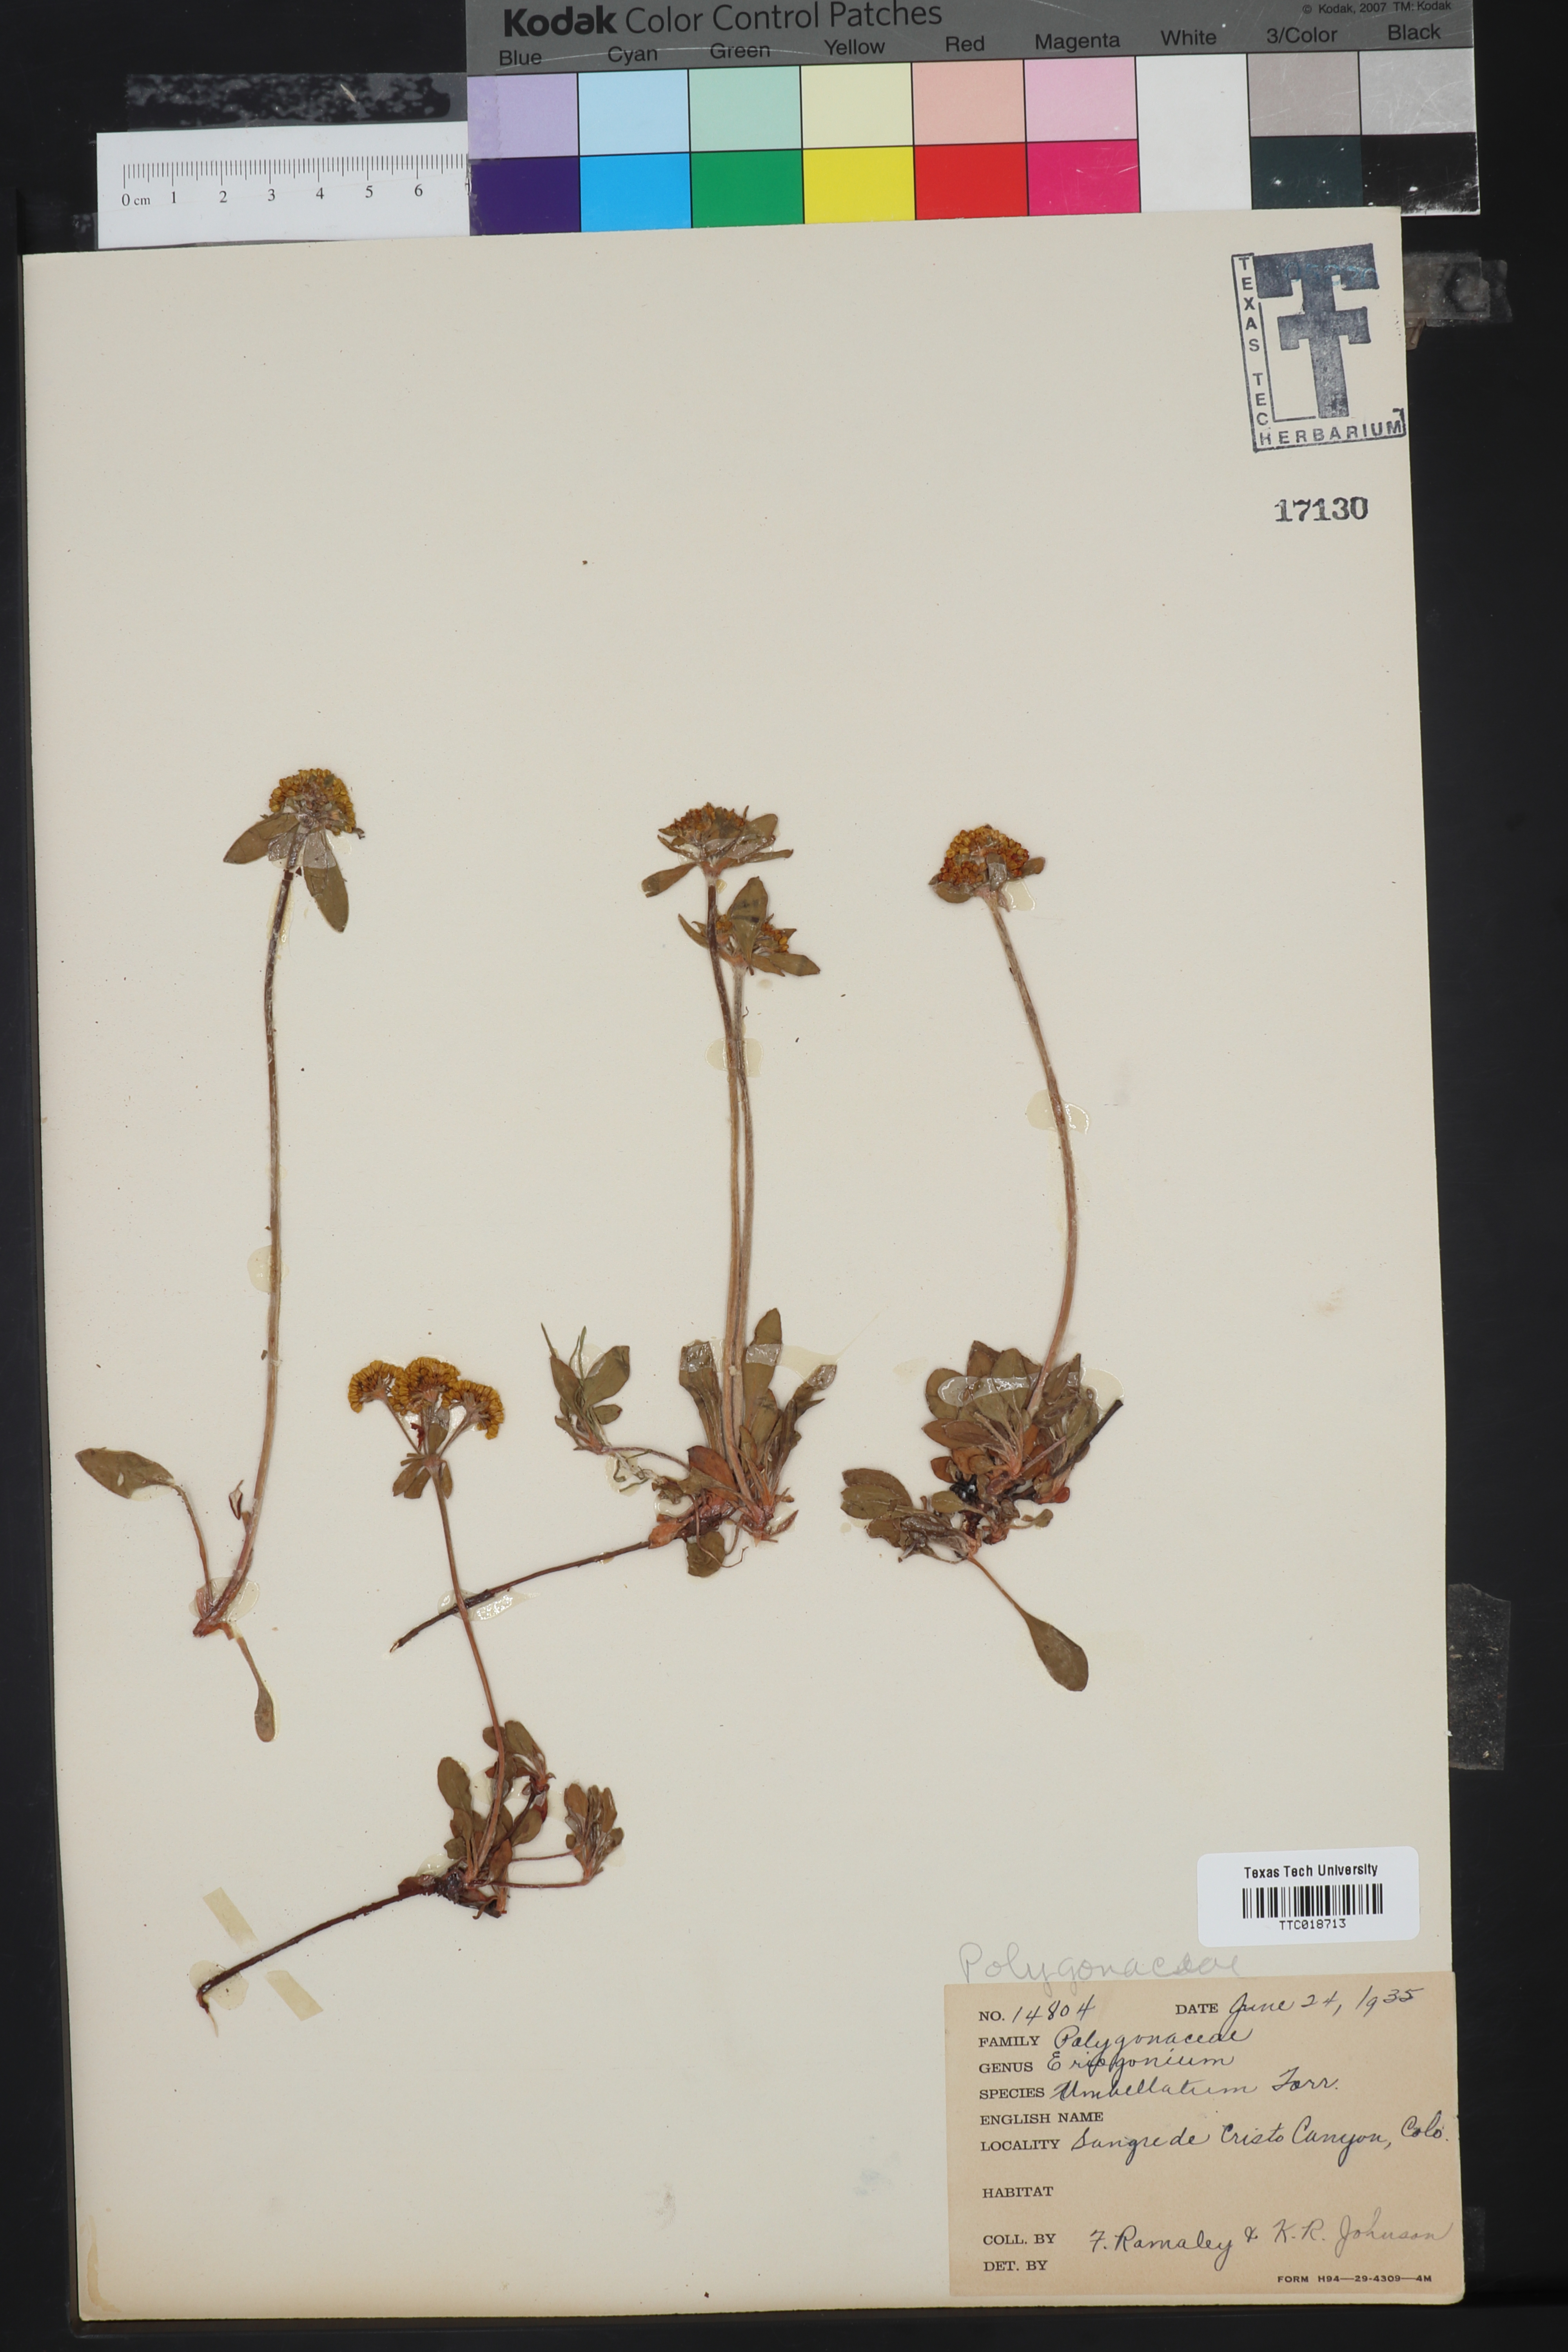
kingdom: Plantae
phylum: Tracheophyta
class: Magnoliopsida
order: Caryophyllales
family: Polygonaceae
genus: Eriogonum
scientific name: Eriogonum umbellatum
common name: Sulfur-buckwheat
